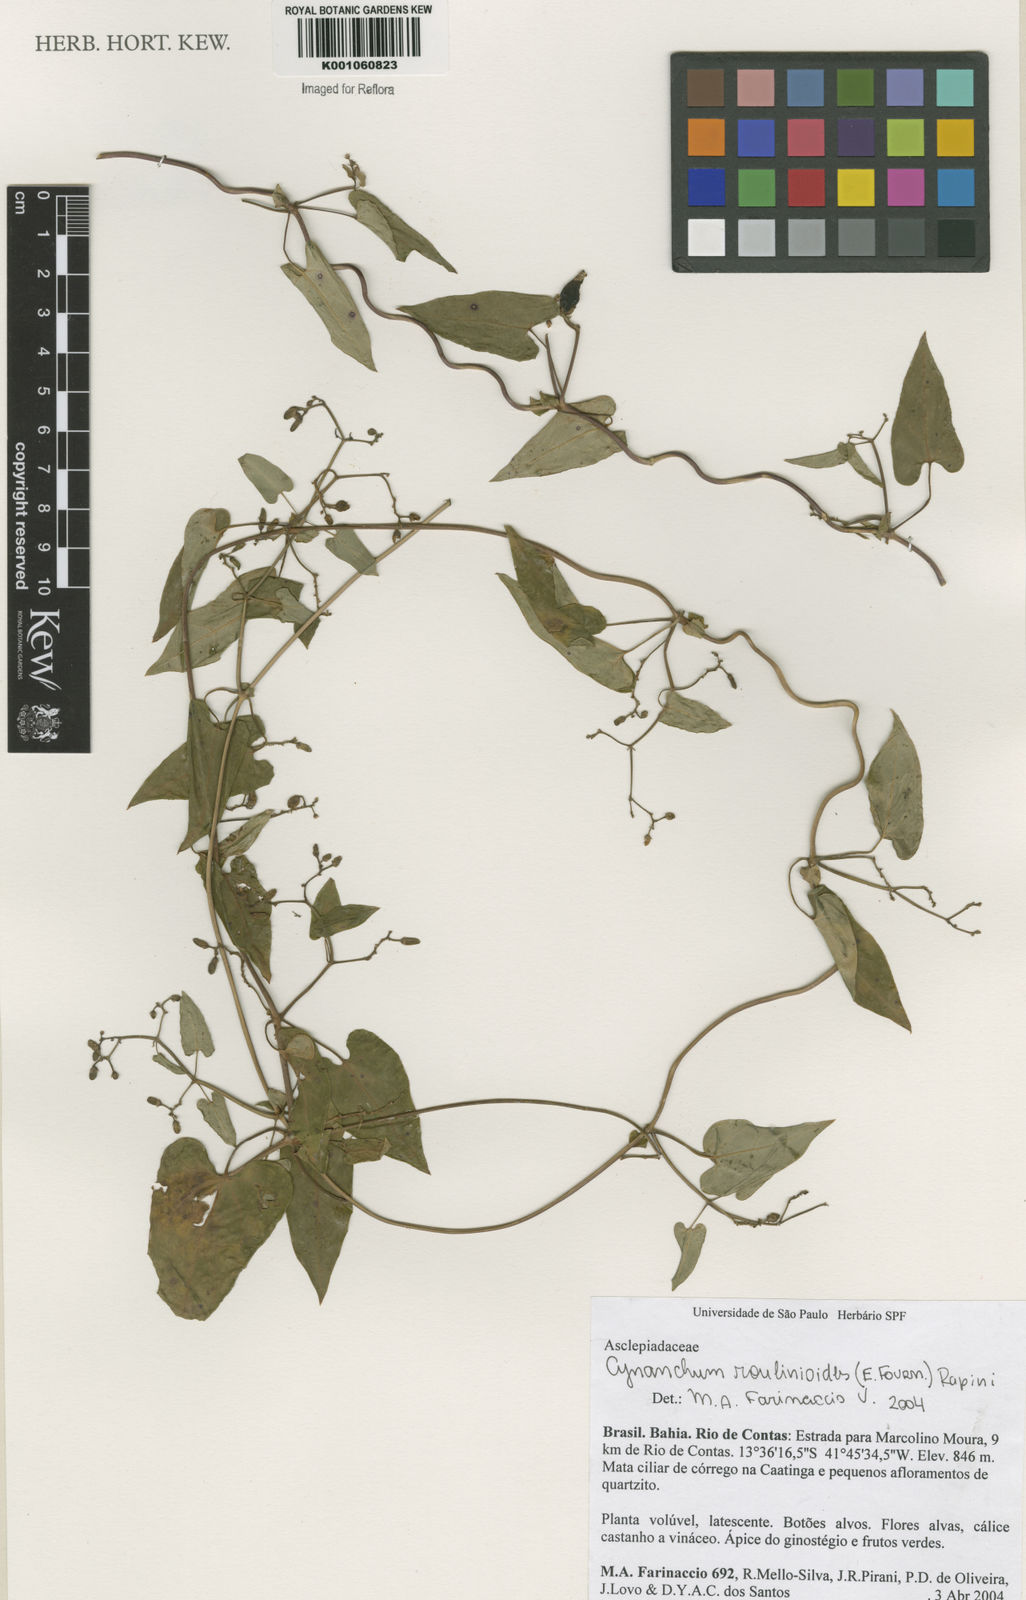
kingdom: Plantae
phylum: Tracheophyta
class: Magnoliopsida
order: Gentianales
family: Apocynaceae
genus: Cynanchum
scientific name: Cynanchum roulinioides
